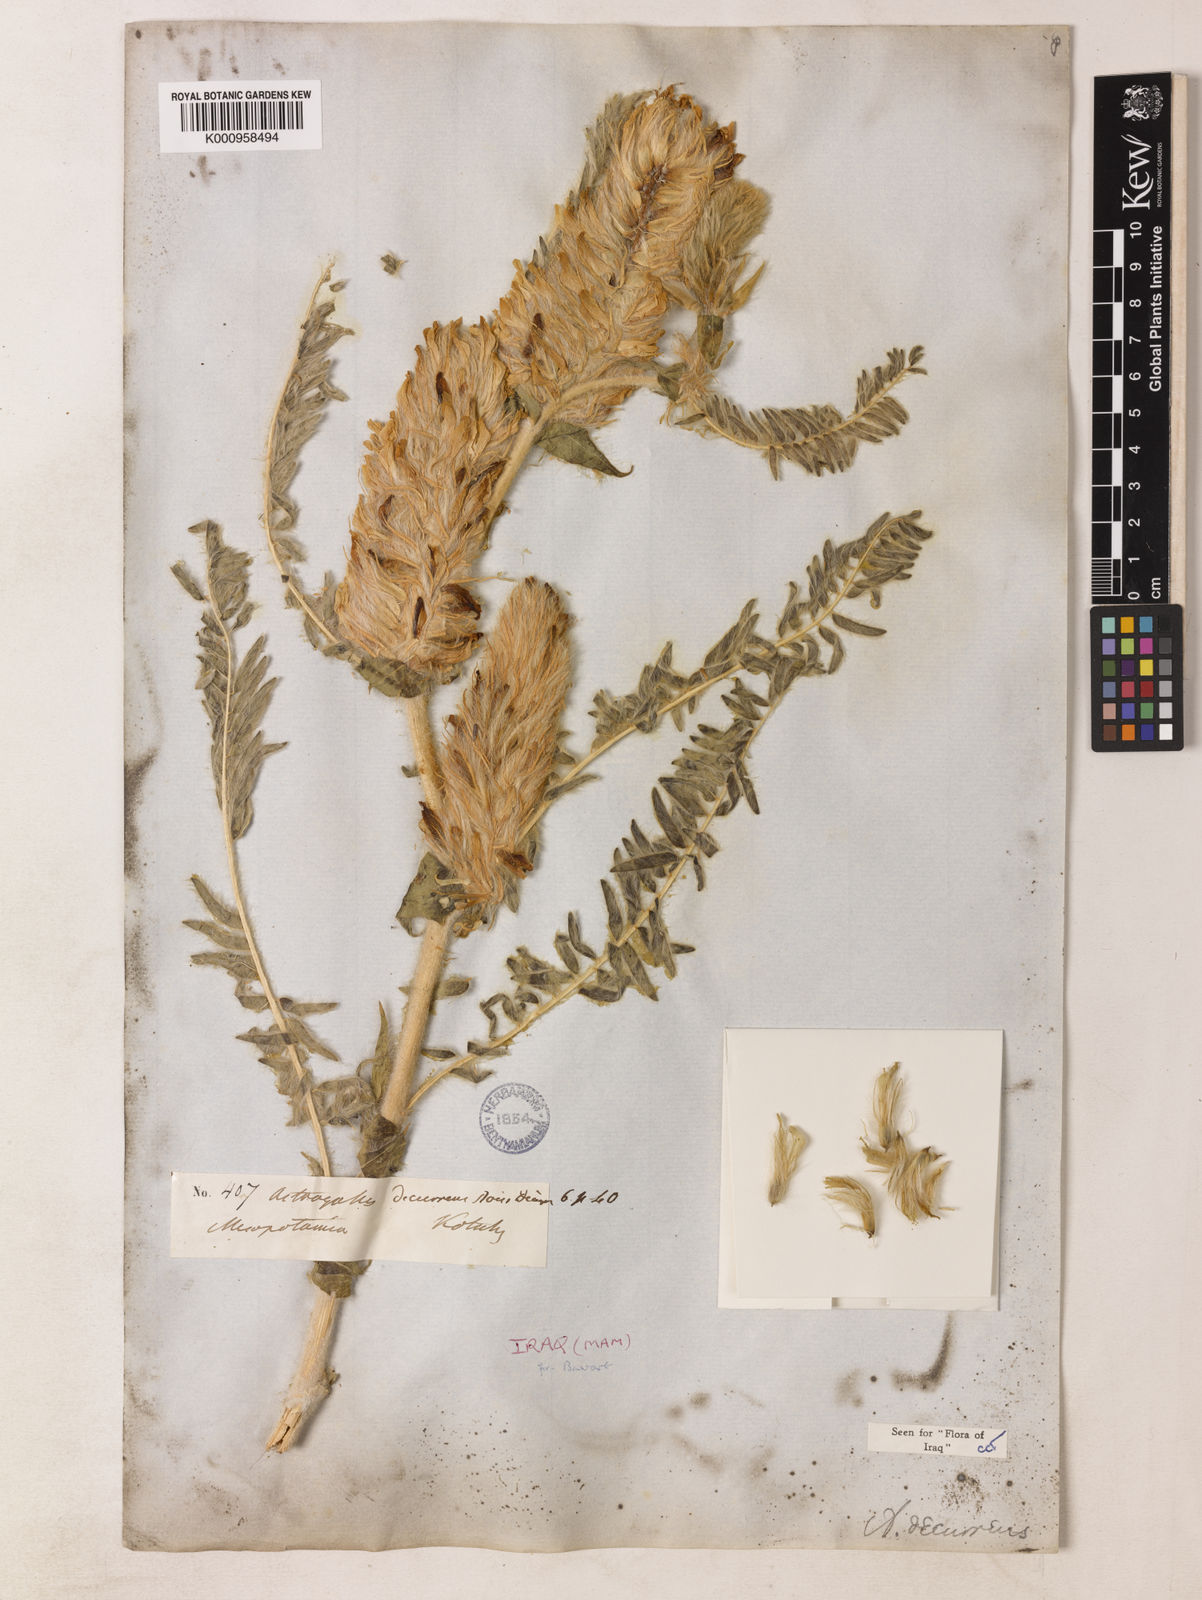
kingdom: Plantae
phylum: Tracheophyta
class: Magnoliopsida
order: Fabales
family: Fabaceae
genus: Astragalus
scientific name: Astragalus decurrens
